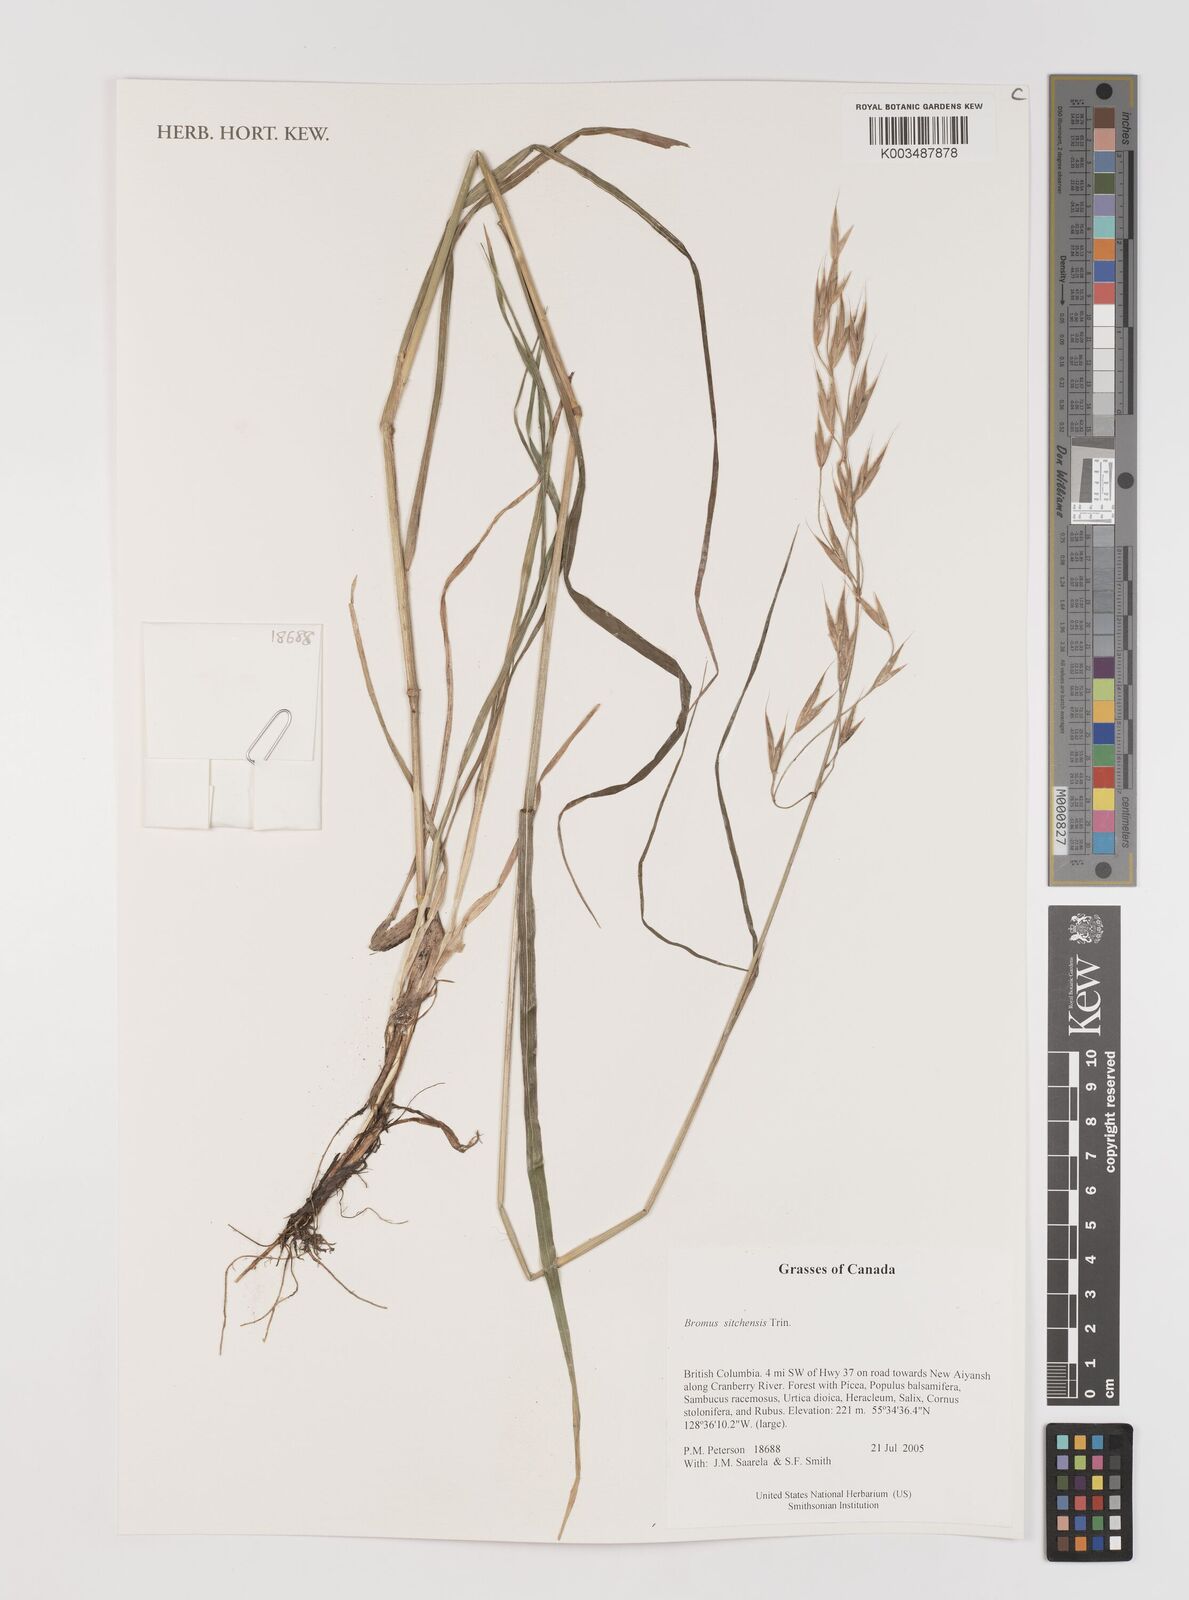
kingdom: Plantae
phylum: Tracheophyta
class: Liliopsida
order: Poales
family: Poaceae
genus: Bromus
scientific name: Bromus sitchensis
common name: Sitka brome
